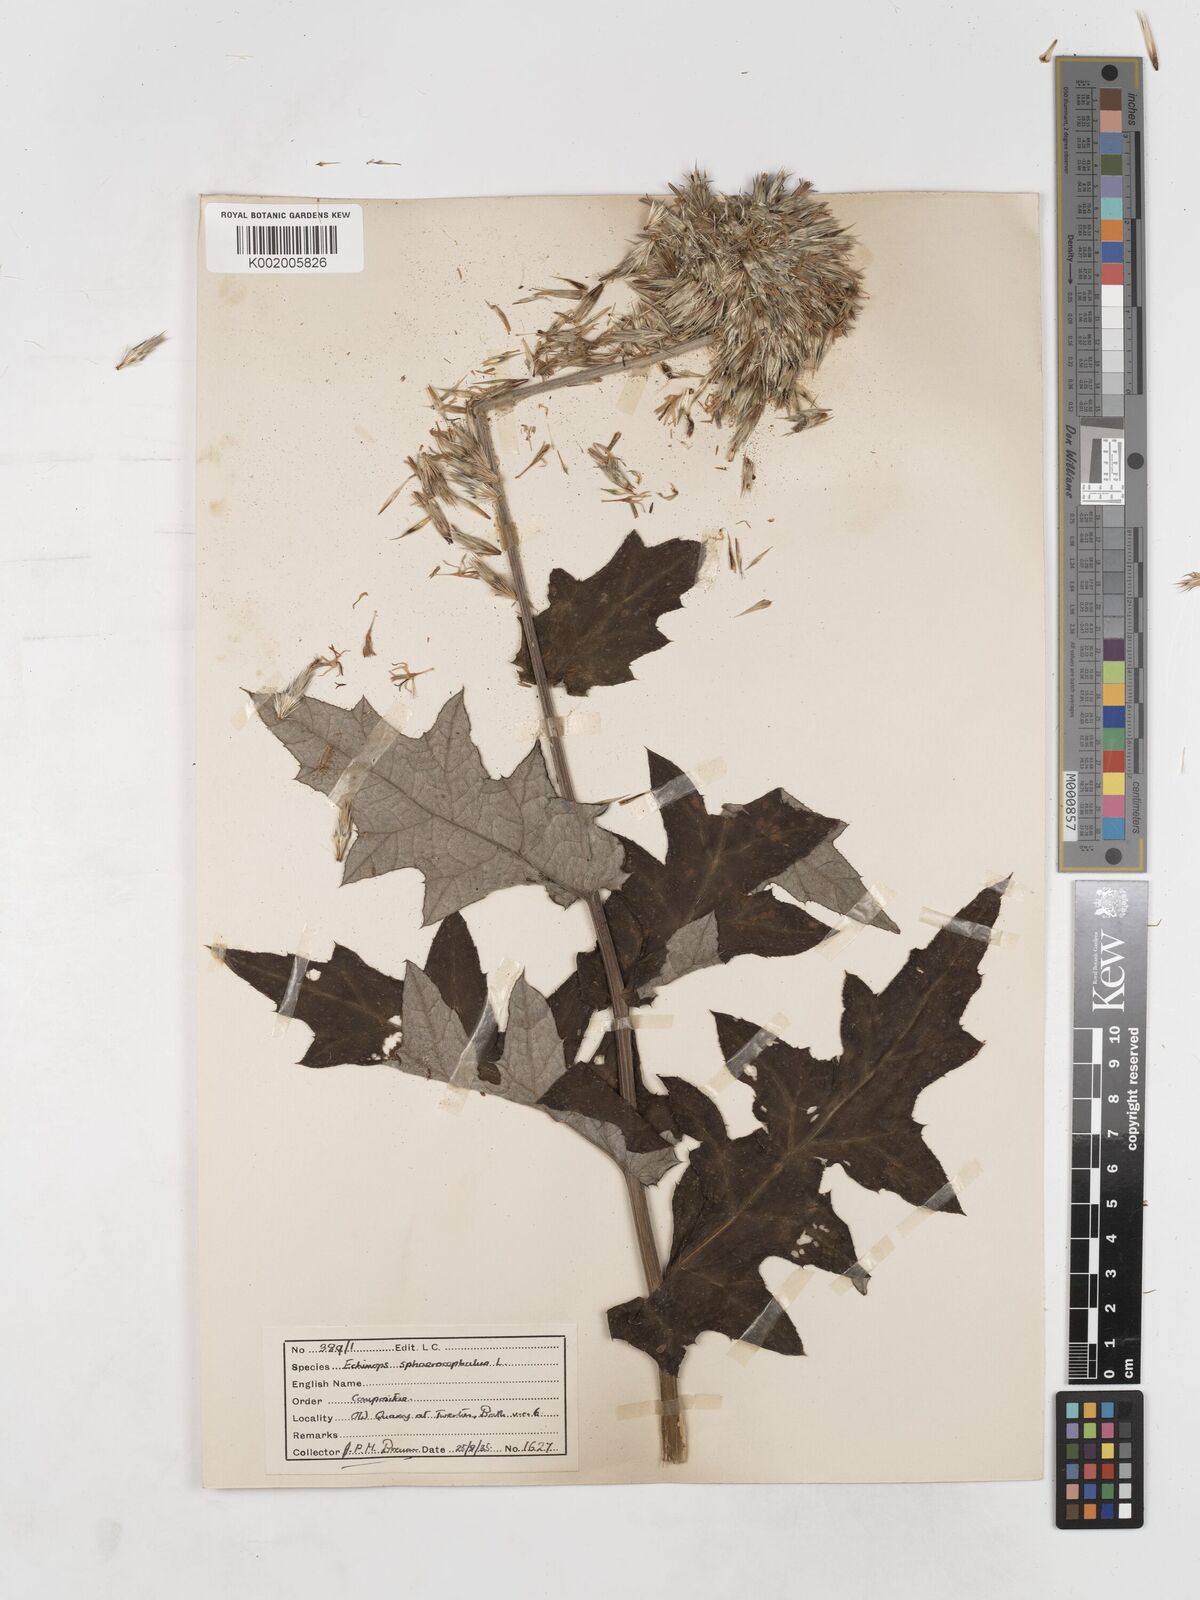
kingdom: Plantae
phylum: Tracheophyta
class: Magnoliopsida
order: Asterales
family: Asteraceae
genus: Echinops
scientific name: Echinops sphaerocephalus
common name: Glandular globe-thistle
